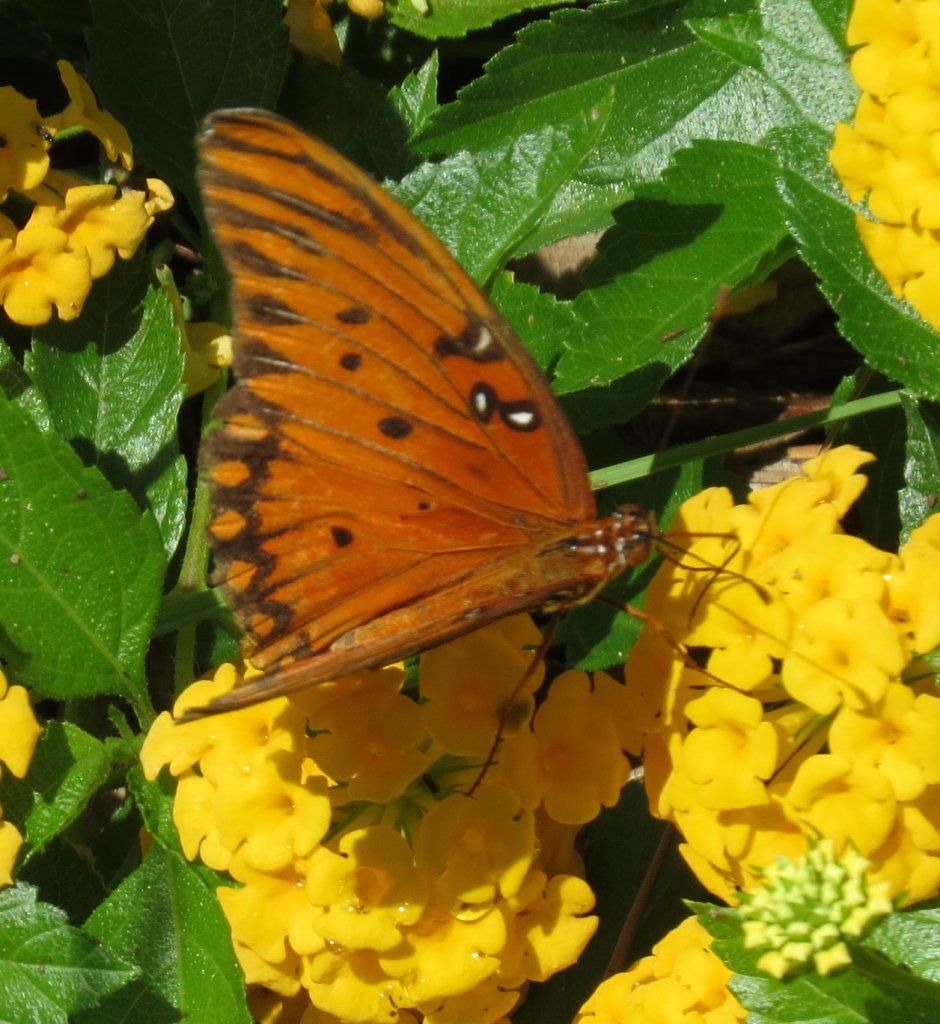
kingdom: Animalia
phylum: Arthropoda
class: Insecta
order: Lepidoptera
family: Nymphalidae
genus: Dione
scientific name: Dione vanillae
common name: Gulf Fritillary
